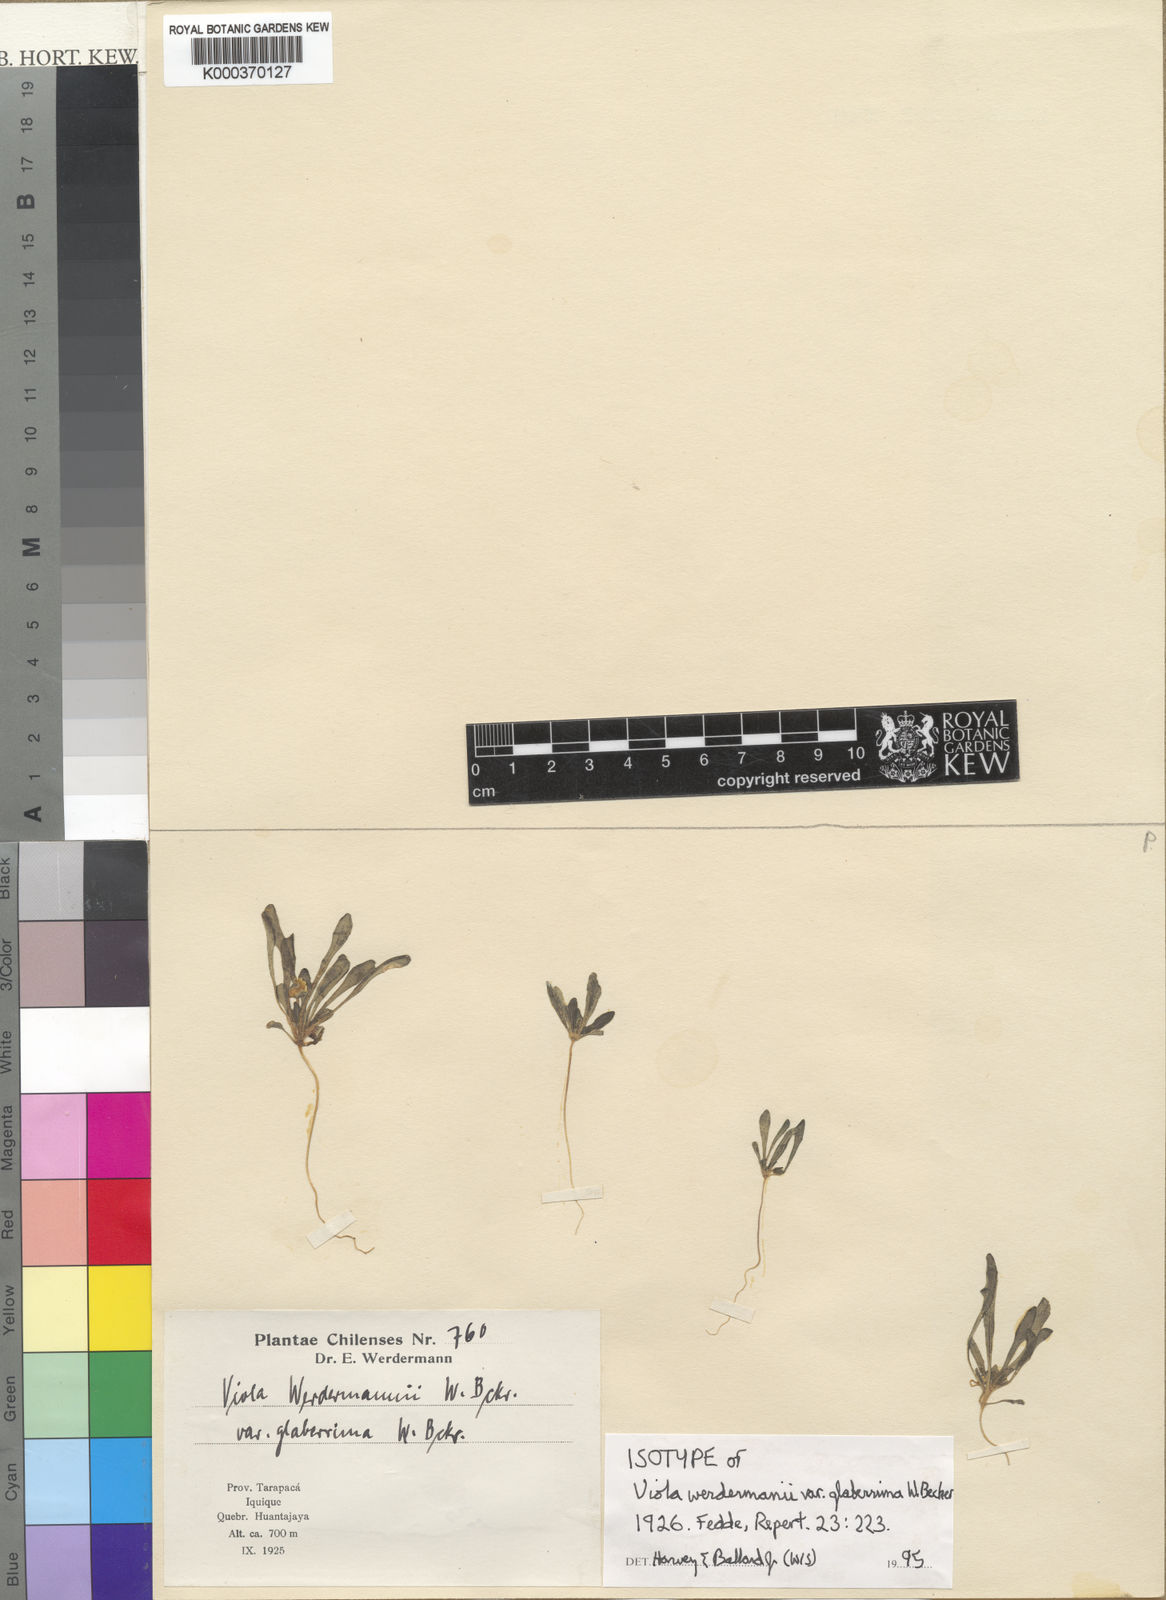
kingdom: Plantae
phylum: Tracheophyta
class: Magnoliopsida
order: Malpighiales
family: Violaceae
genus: Viola
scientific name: Viola polypoda
